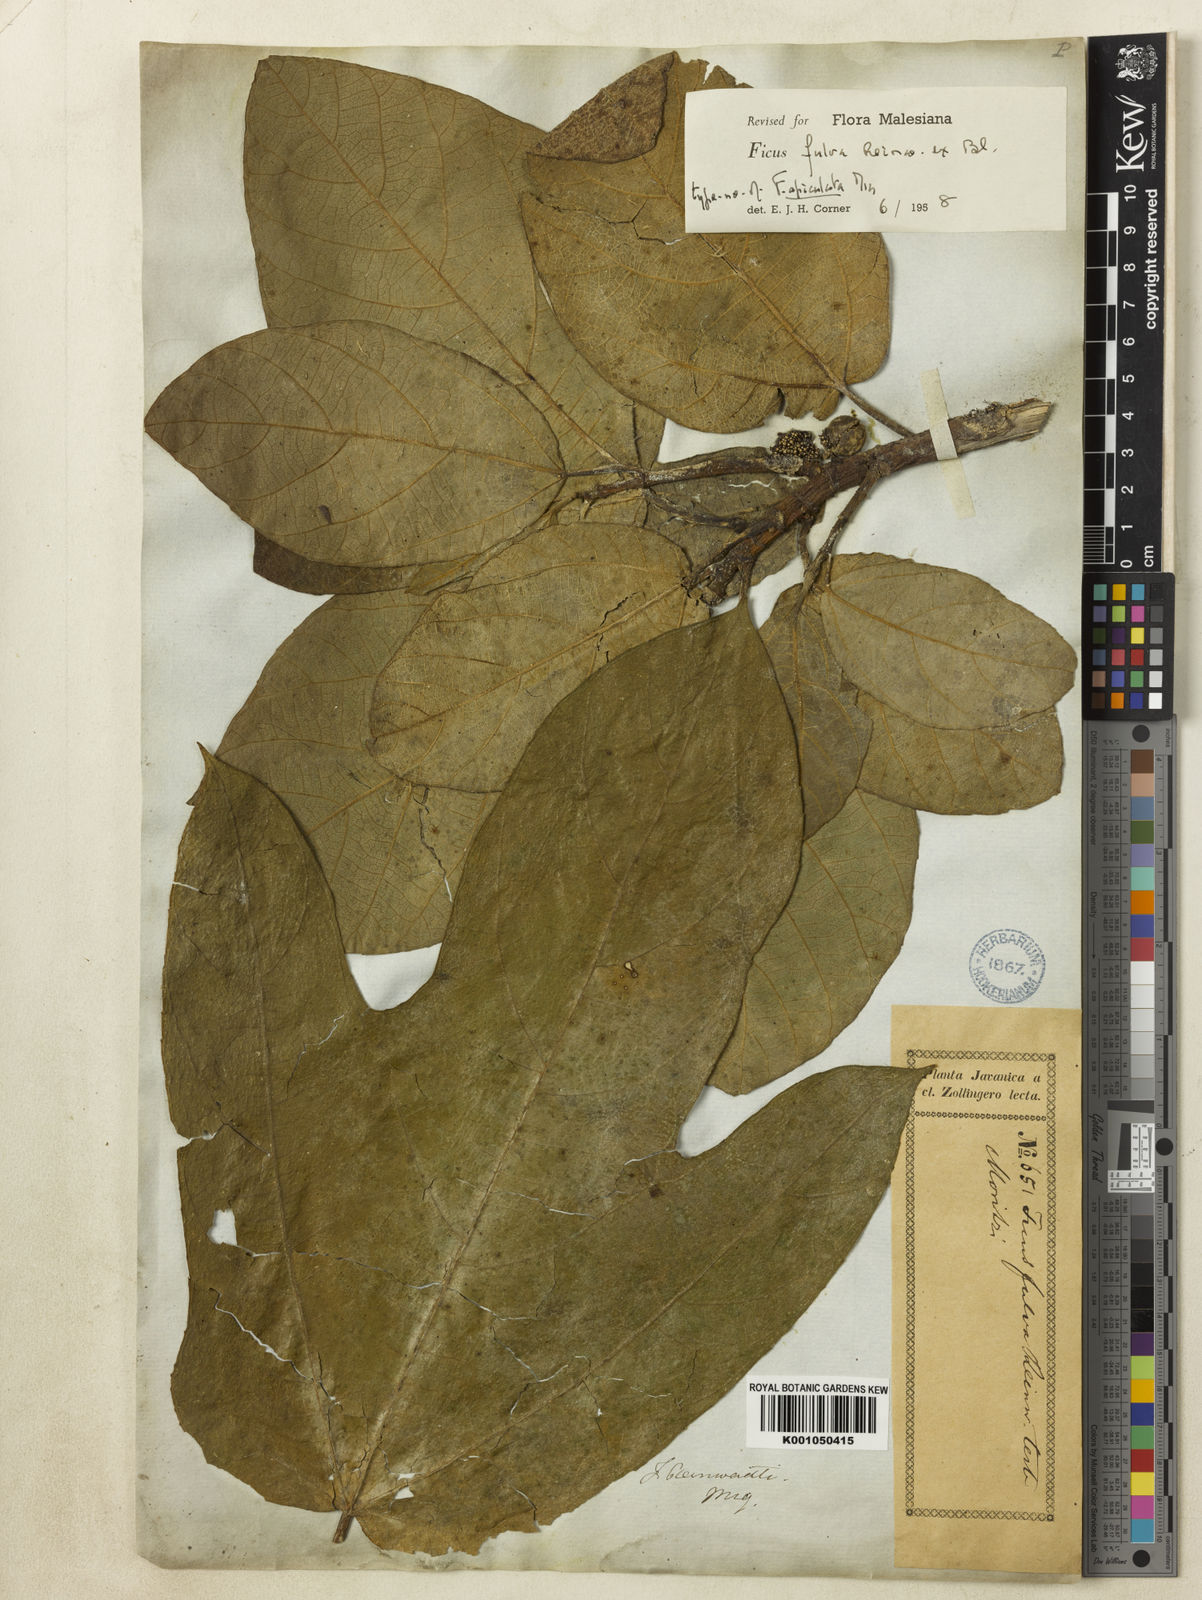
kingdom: Plantae
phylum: Tracheophyta
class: Magnoliopsida
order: Rosales
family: Moraceae
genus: Ficus
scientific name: Ficus fulva
